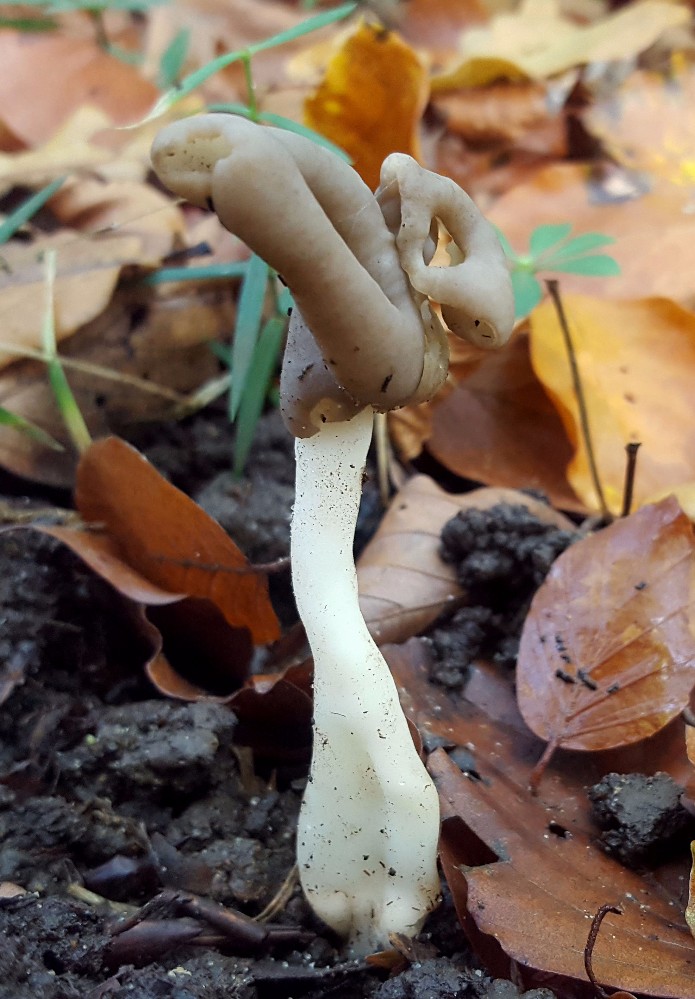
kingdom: Fungi
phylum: Ascomycota
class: Pezizomycetes
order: Pezizales
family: Helvellaceae
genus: Helvella
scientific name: Helvella elastica
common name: elastik-foldhat
